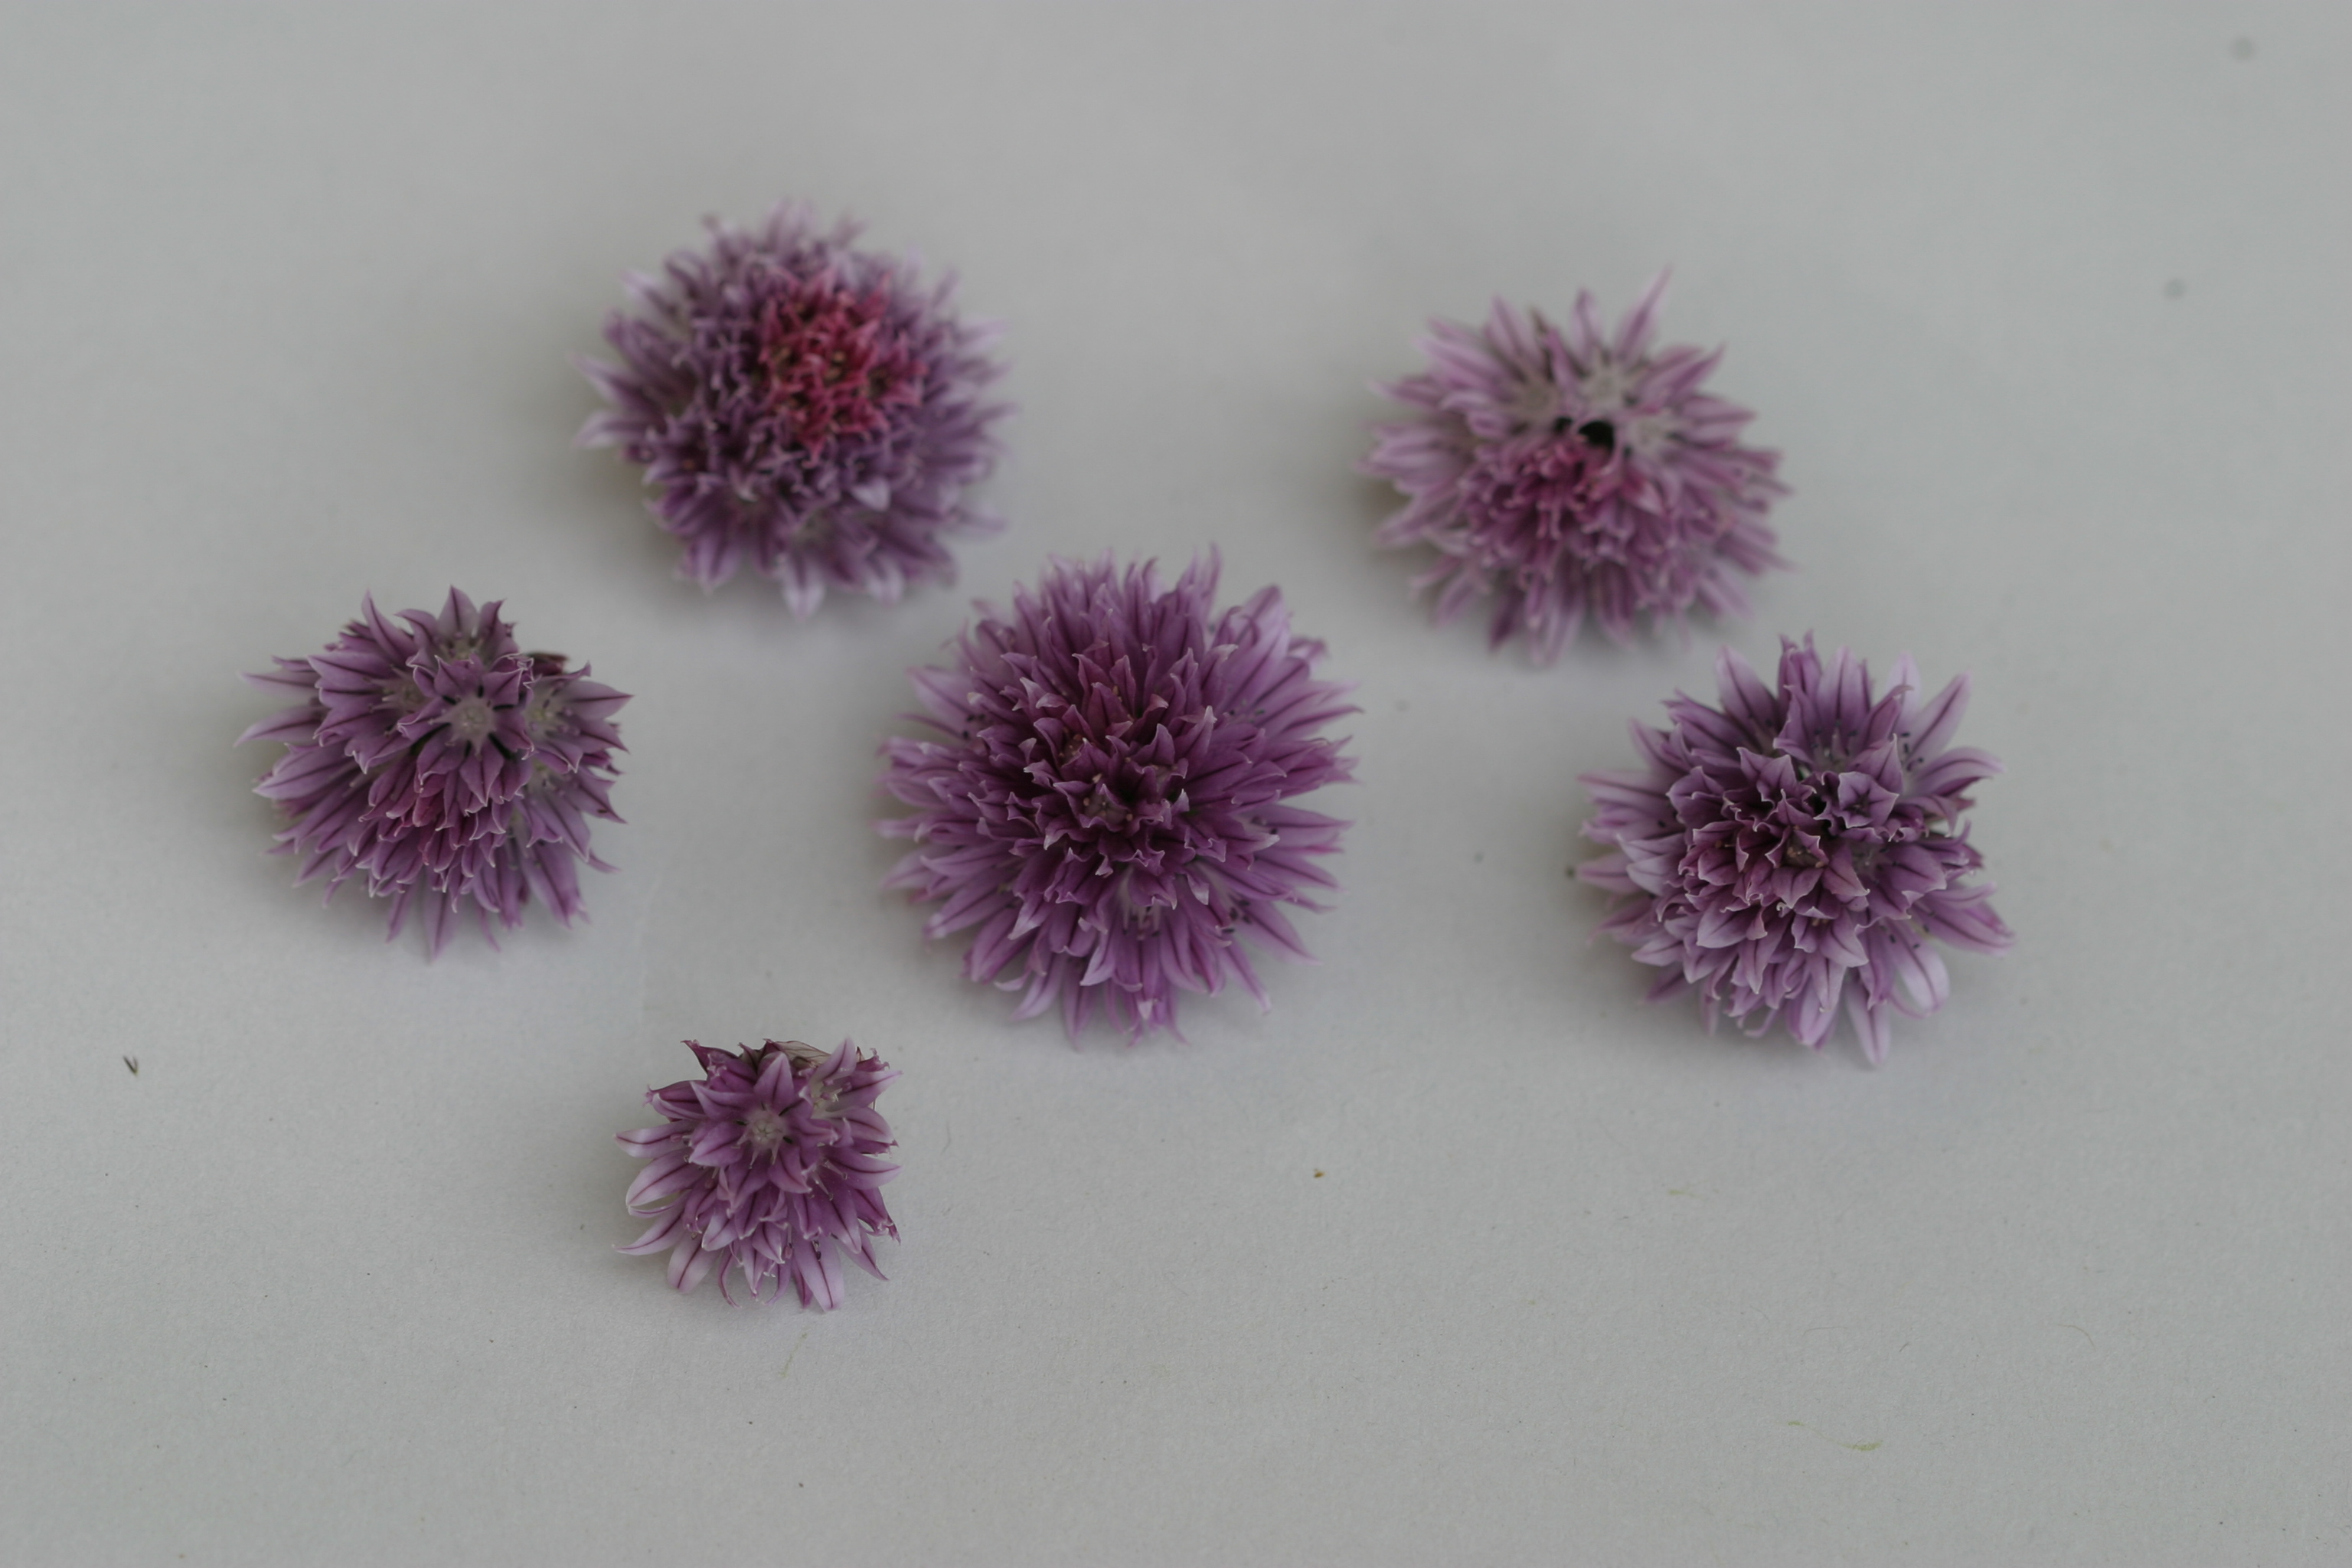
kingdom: Plantae
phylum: Tracheophyta
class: Liliopsida
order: Asparagales
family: Amaryllidaceae
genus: Allium
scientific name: Allium schoenoprasum
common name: Chives
